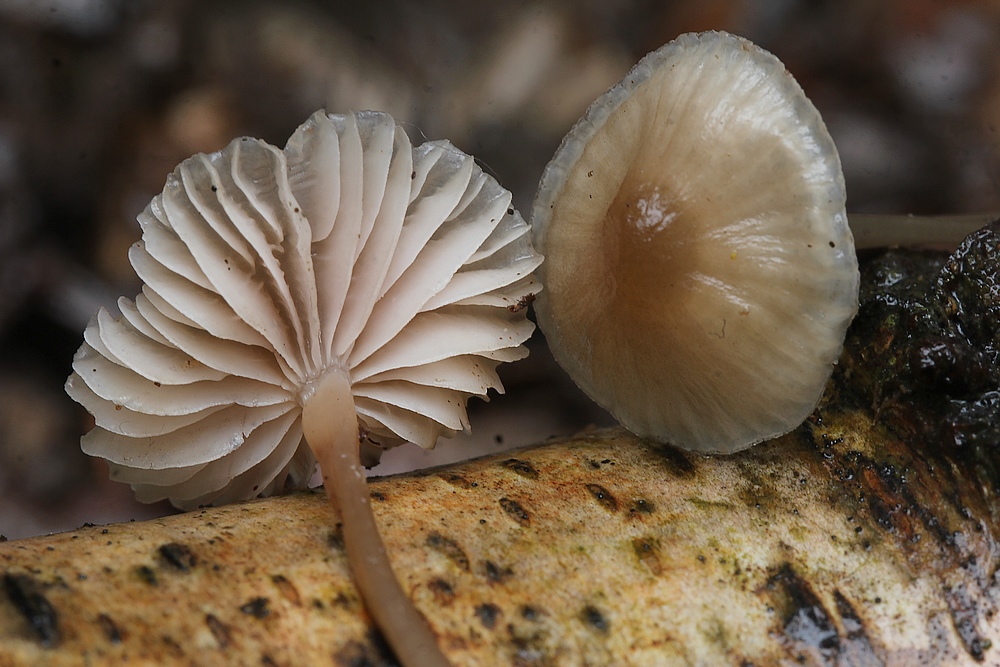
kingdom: Fungi
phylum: Basidiomycota
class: Agaricomycetes
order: Agaricales
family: Mycenaceae
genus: Mycena
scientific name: Mycena galericulata
